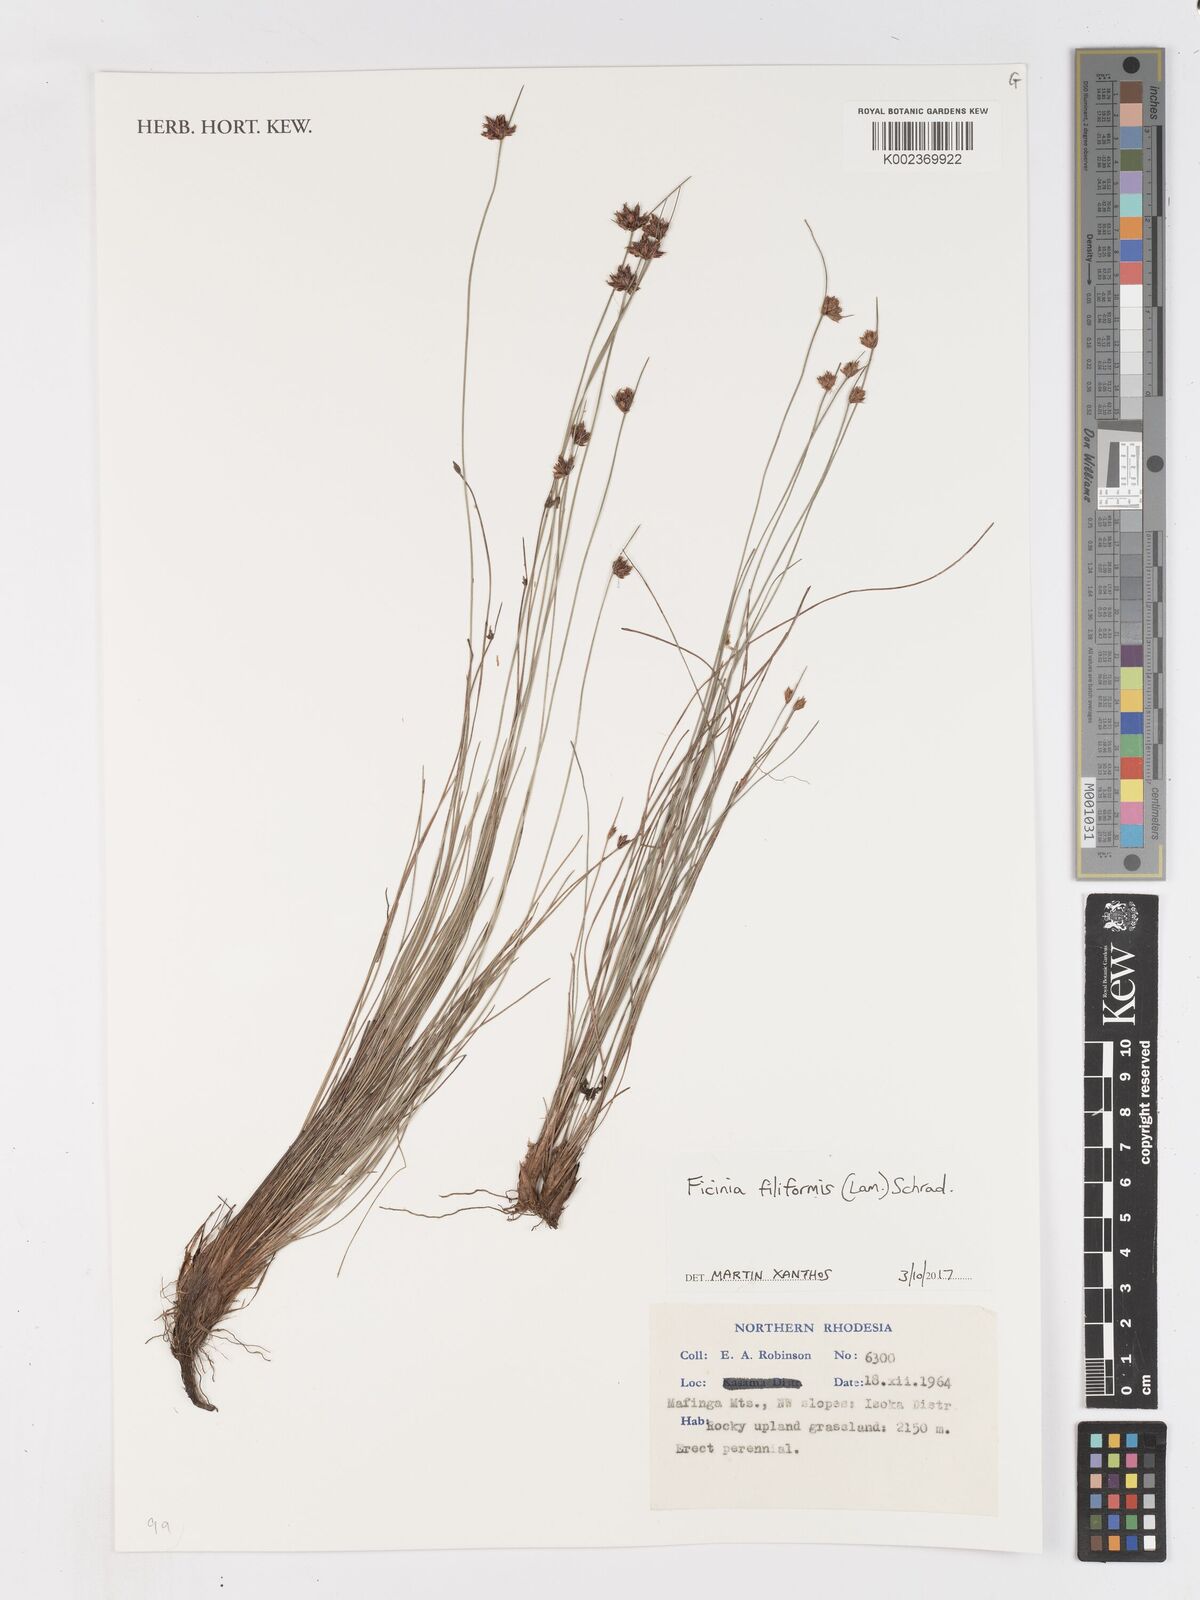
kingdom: Plantae
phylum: Tracheophyta
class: Liliopsida
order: Poales
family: Cyperaceae
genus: Ficinia
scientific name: Ficinia filiformis
